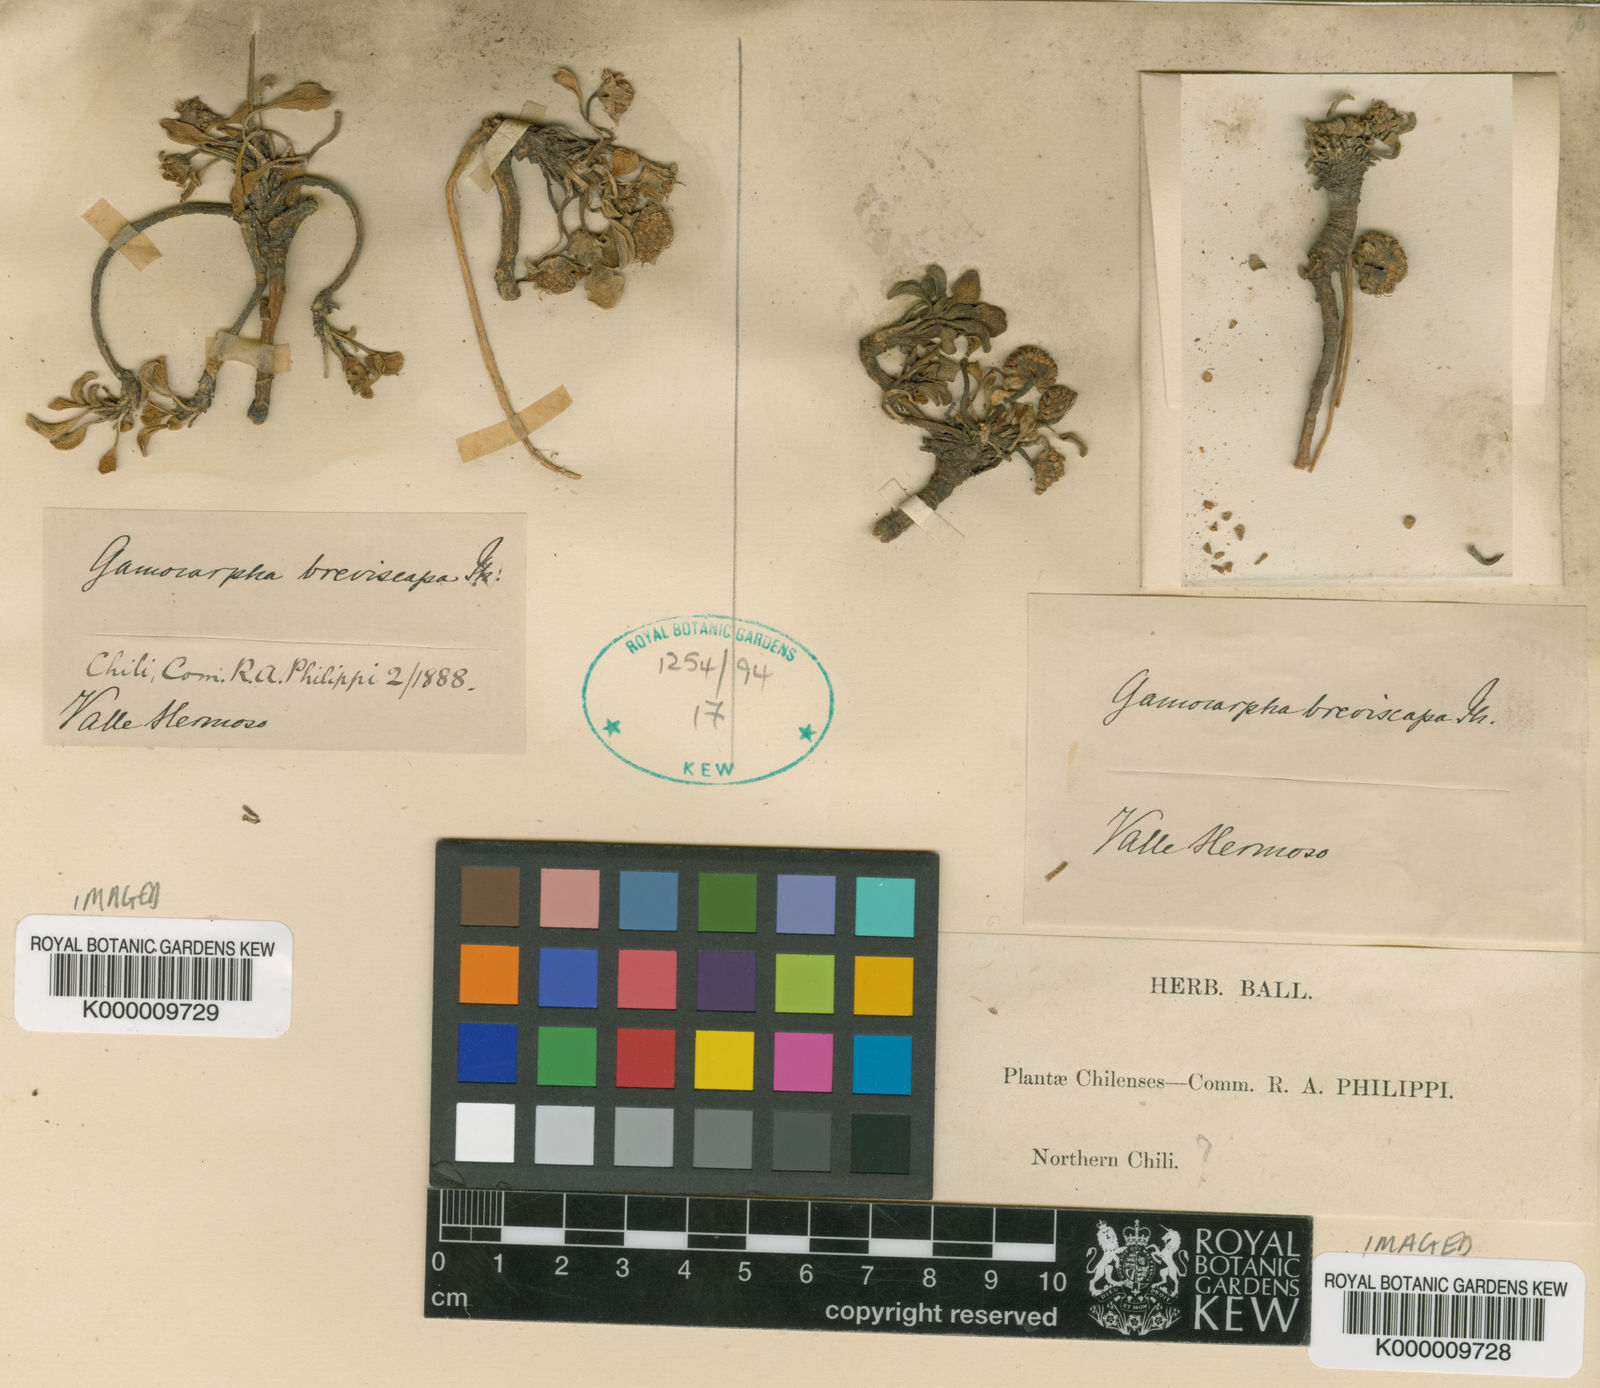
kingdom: Plantae
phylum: Tracheophyta
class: Magnoliopsida
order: Asterales
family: Calyceraceae
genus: Gamocarpha
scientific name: Gamocarpha alpina
